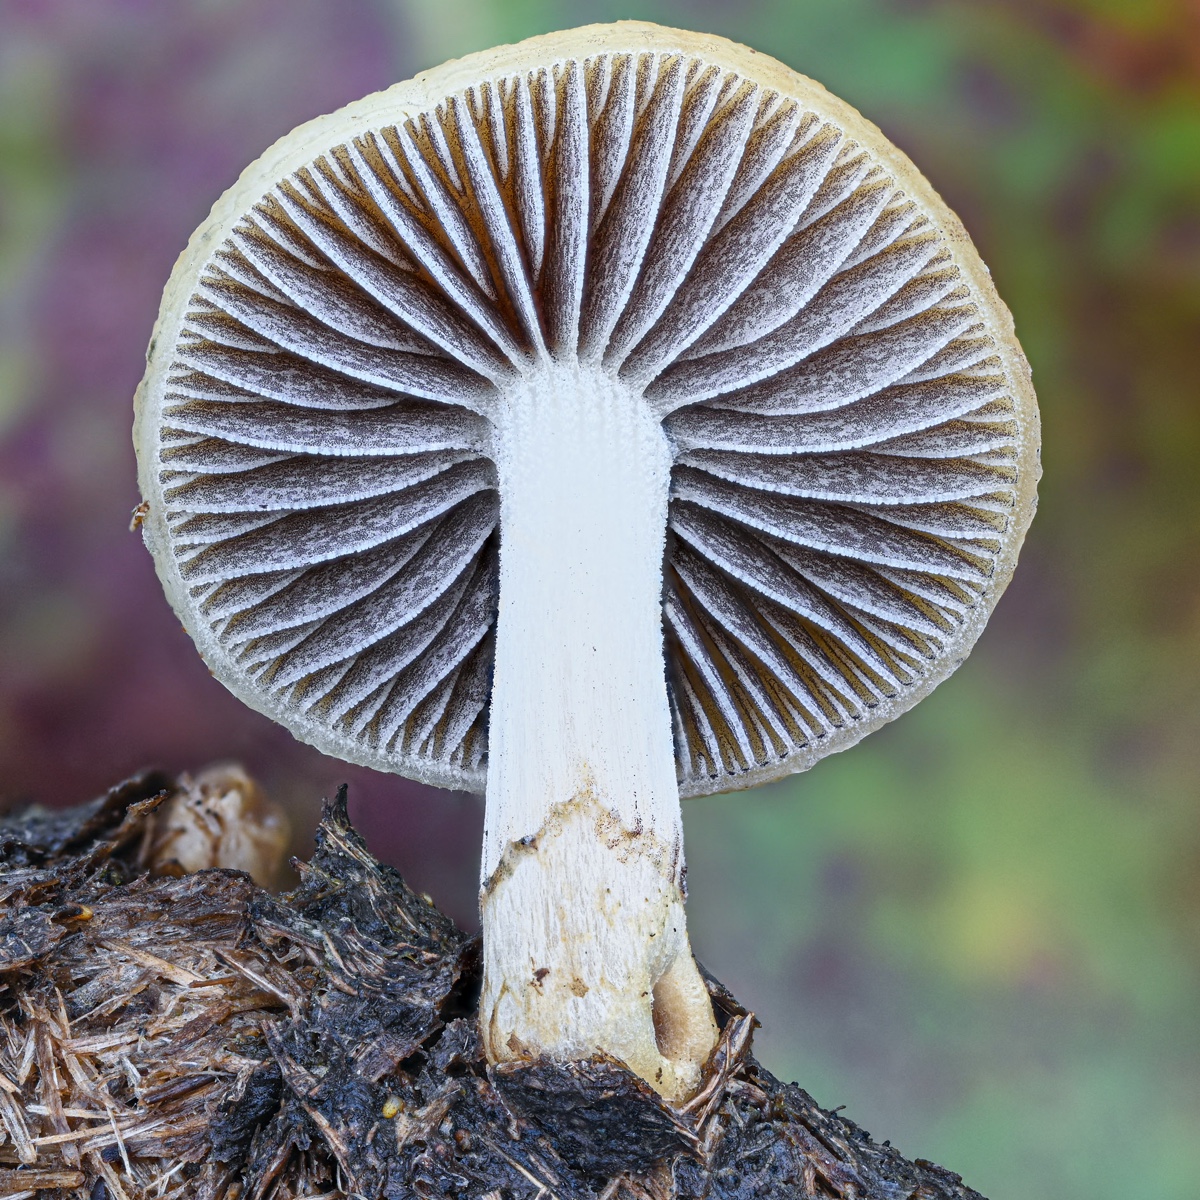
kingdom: Fungi
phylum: Basidiomycota
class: Agaricomycetes
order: Agaricales
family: Strophariaceae
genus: Protostropharia
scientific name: Protostropharia semiglobata
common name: halvkugleformet bredblad
